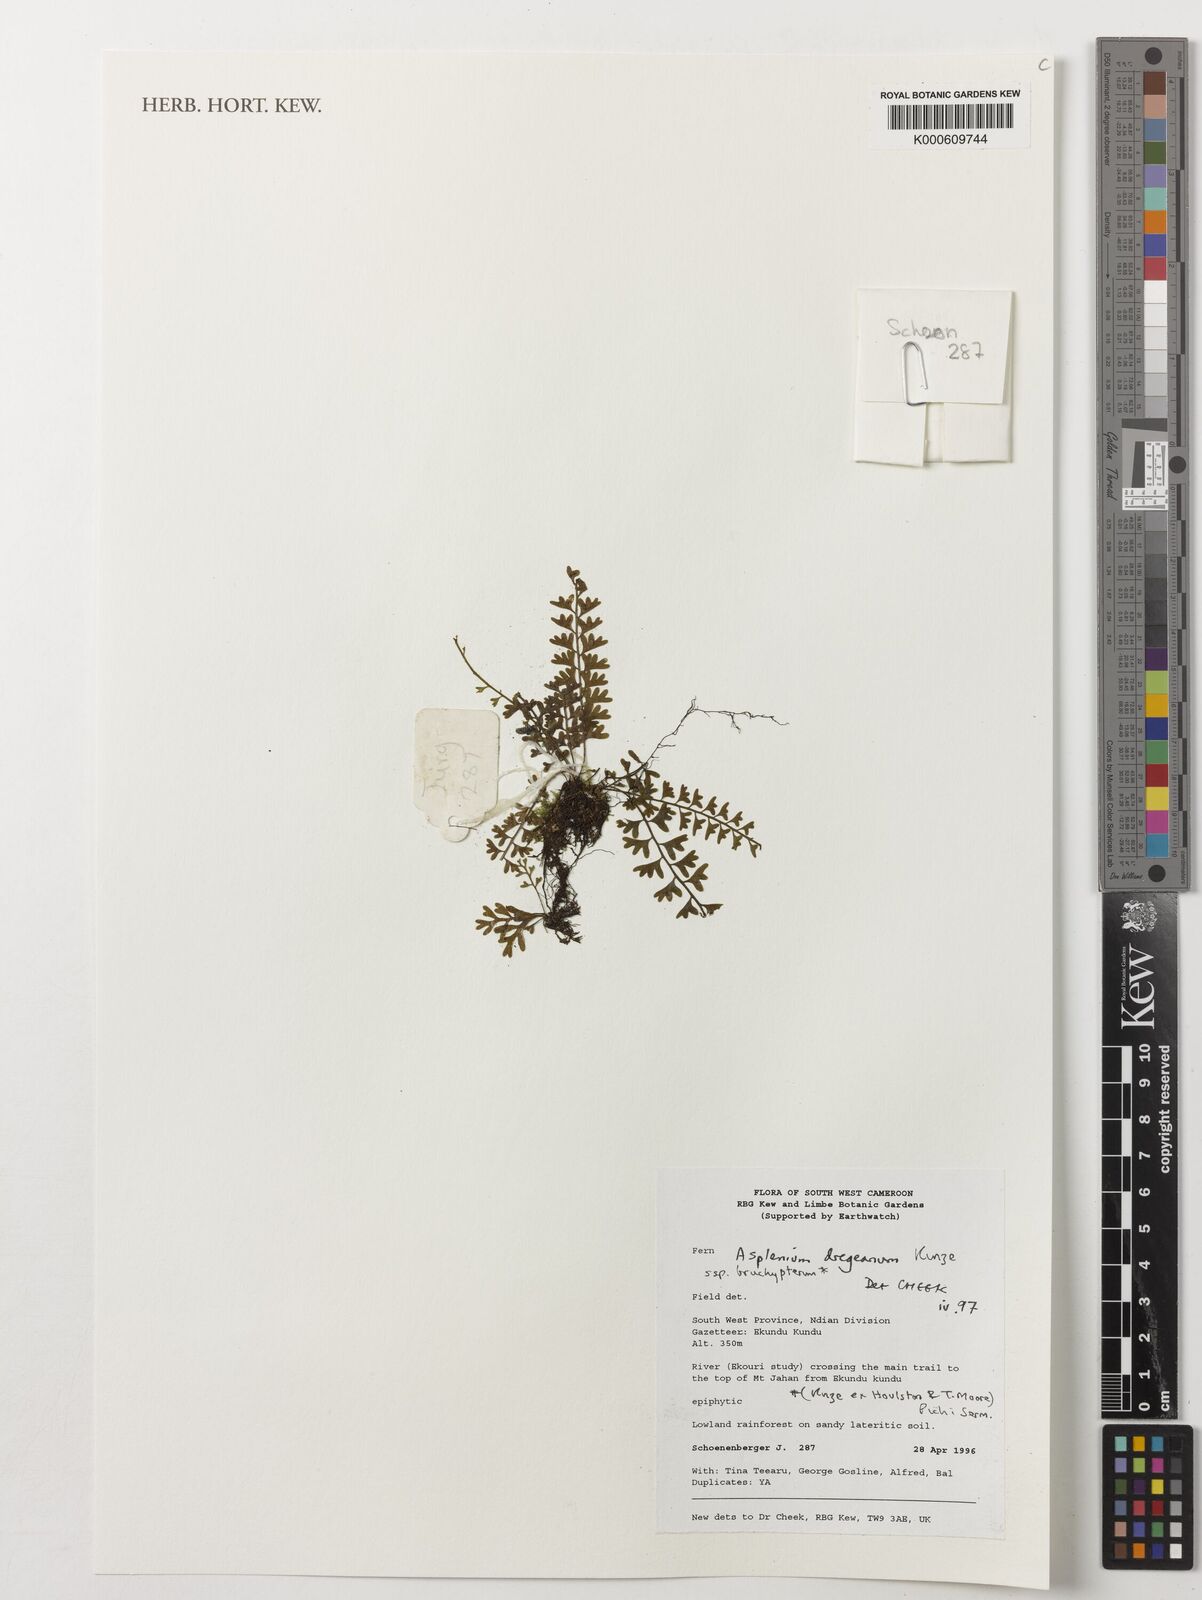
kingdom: Plantae
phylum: Tracheophyta
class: Polypodiopsida
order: Polypodiales
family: Aspleniaceae
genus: Asplenium
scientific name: Asplenium dregeanum
